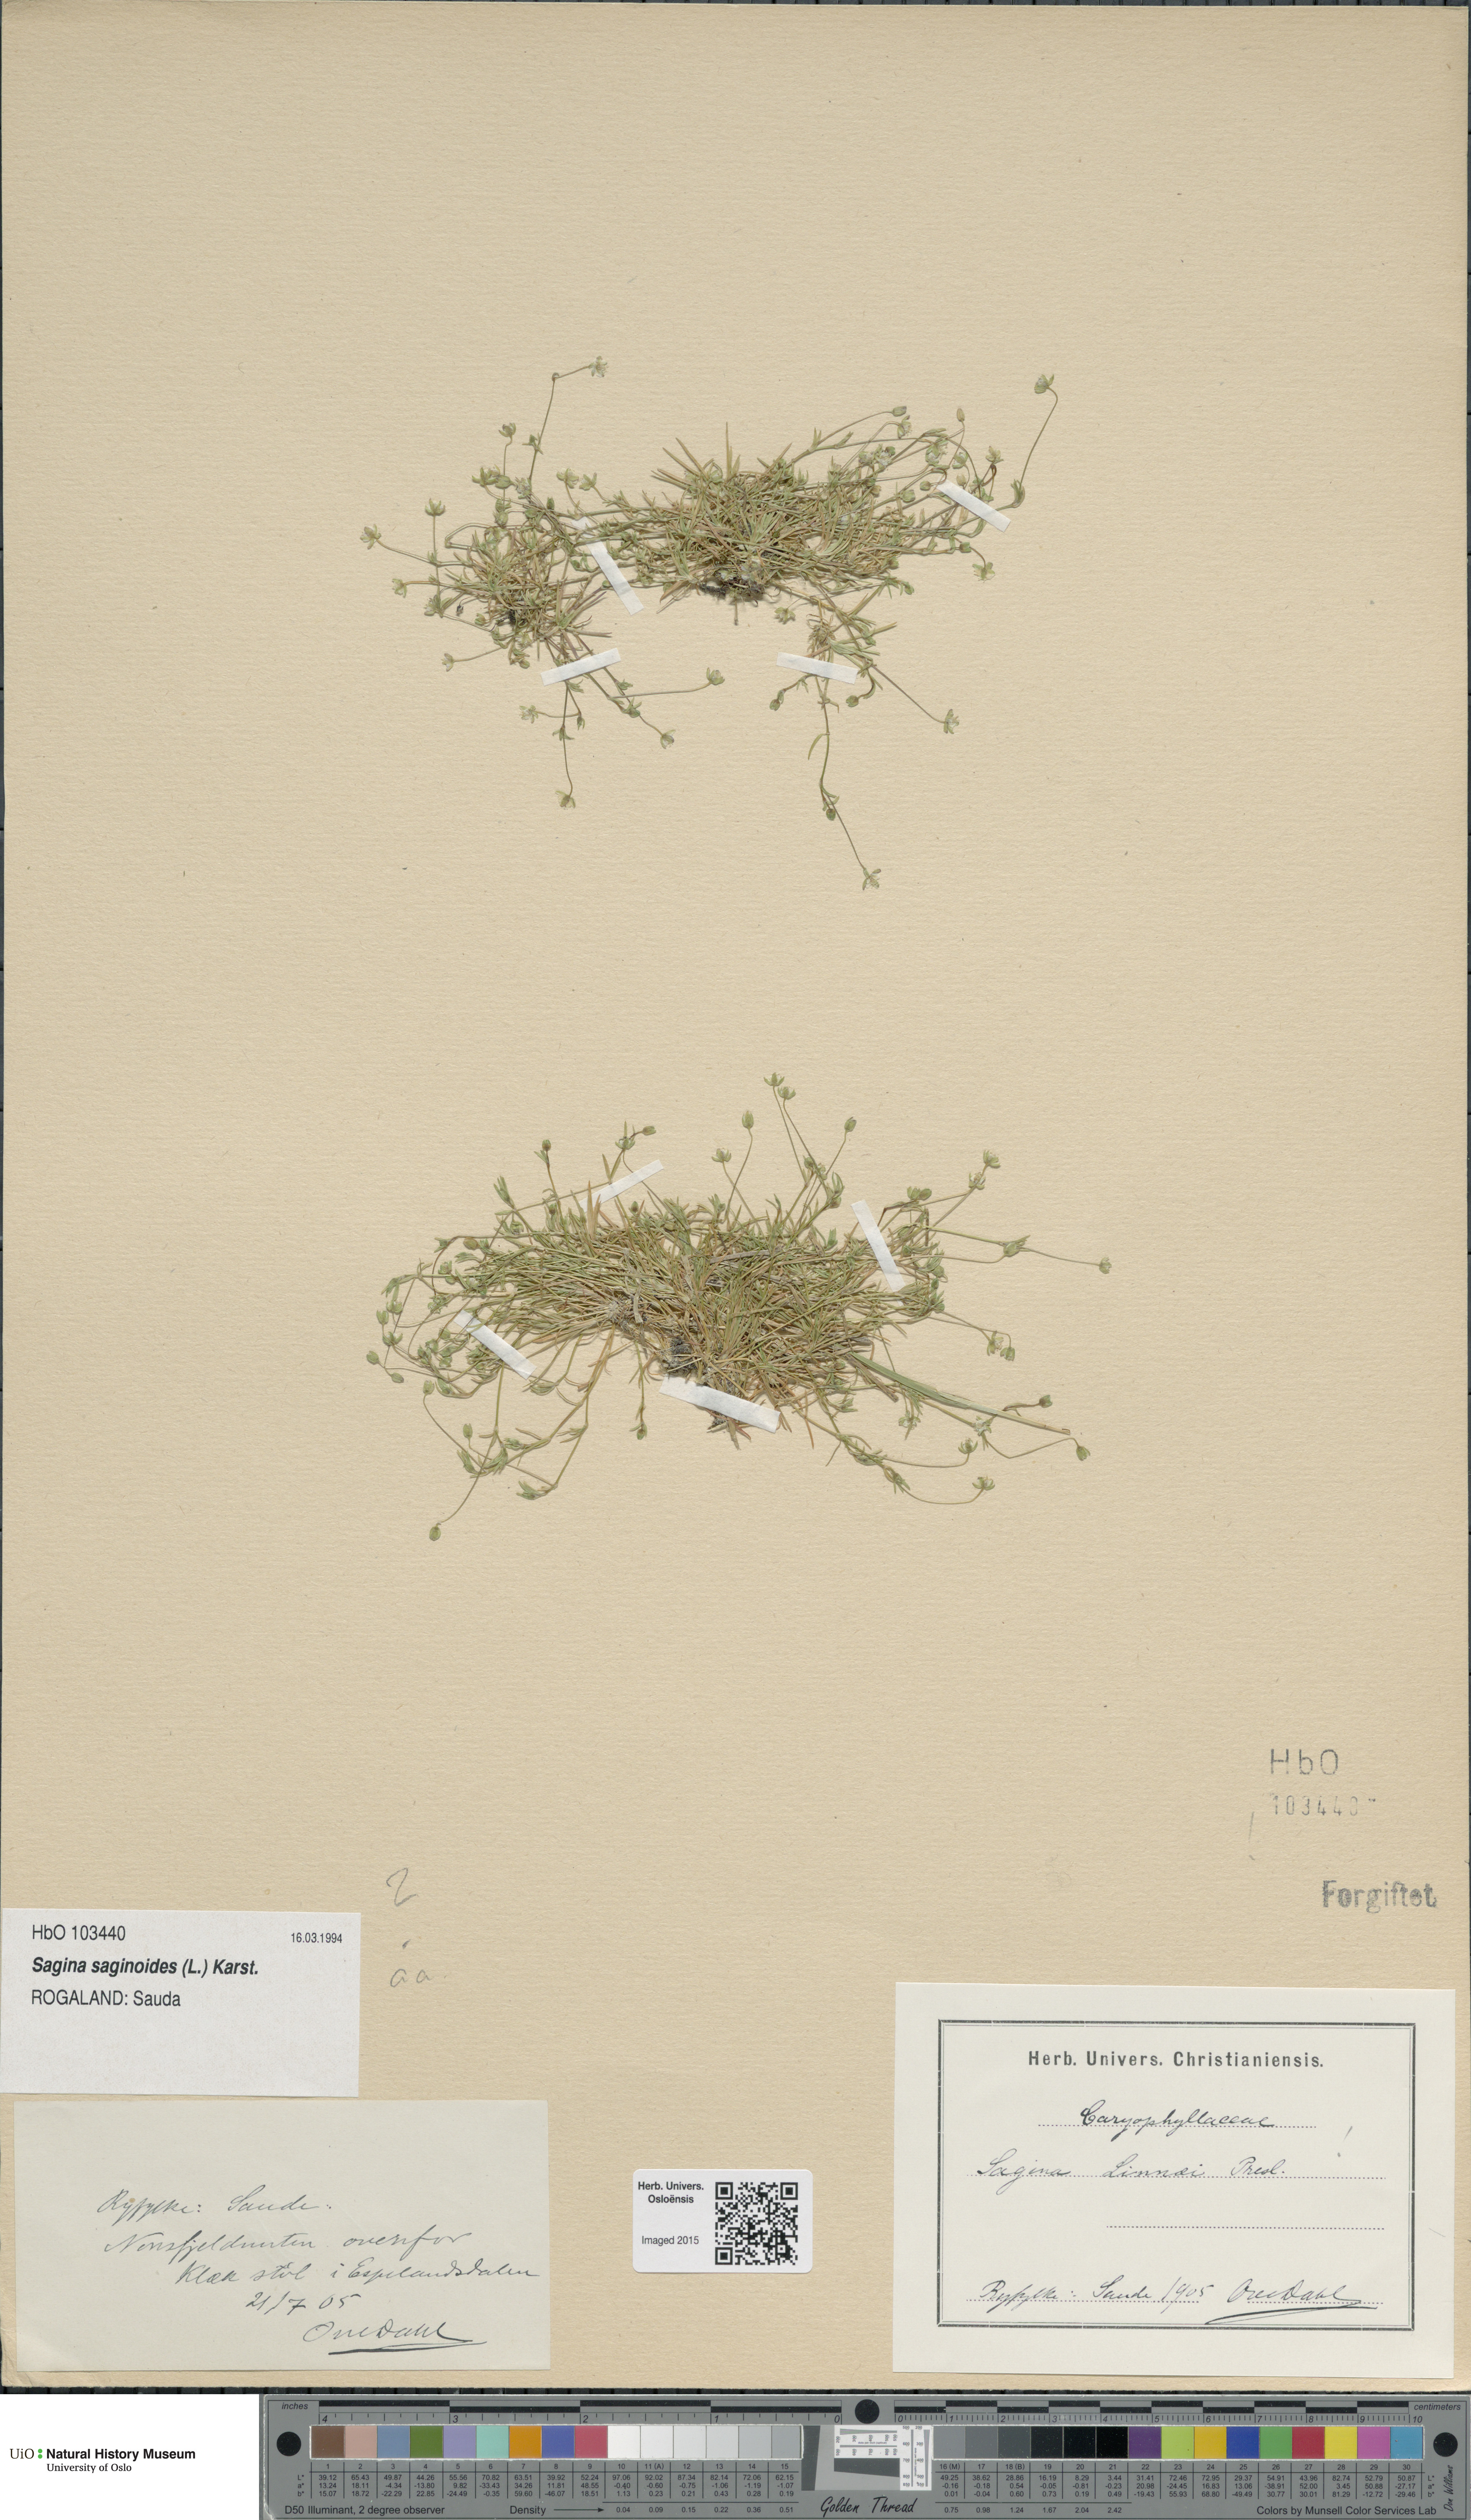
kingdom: Plantae
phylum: Tracheophyta
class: Magnoliopsida
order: Caryophyllales
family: Caryophyllaceae
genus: Sagina
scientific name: Sagina saginoides
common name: Alpine pearlwort
